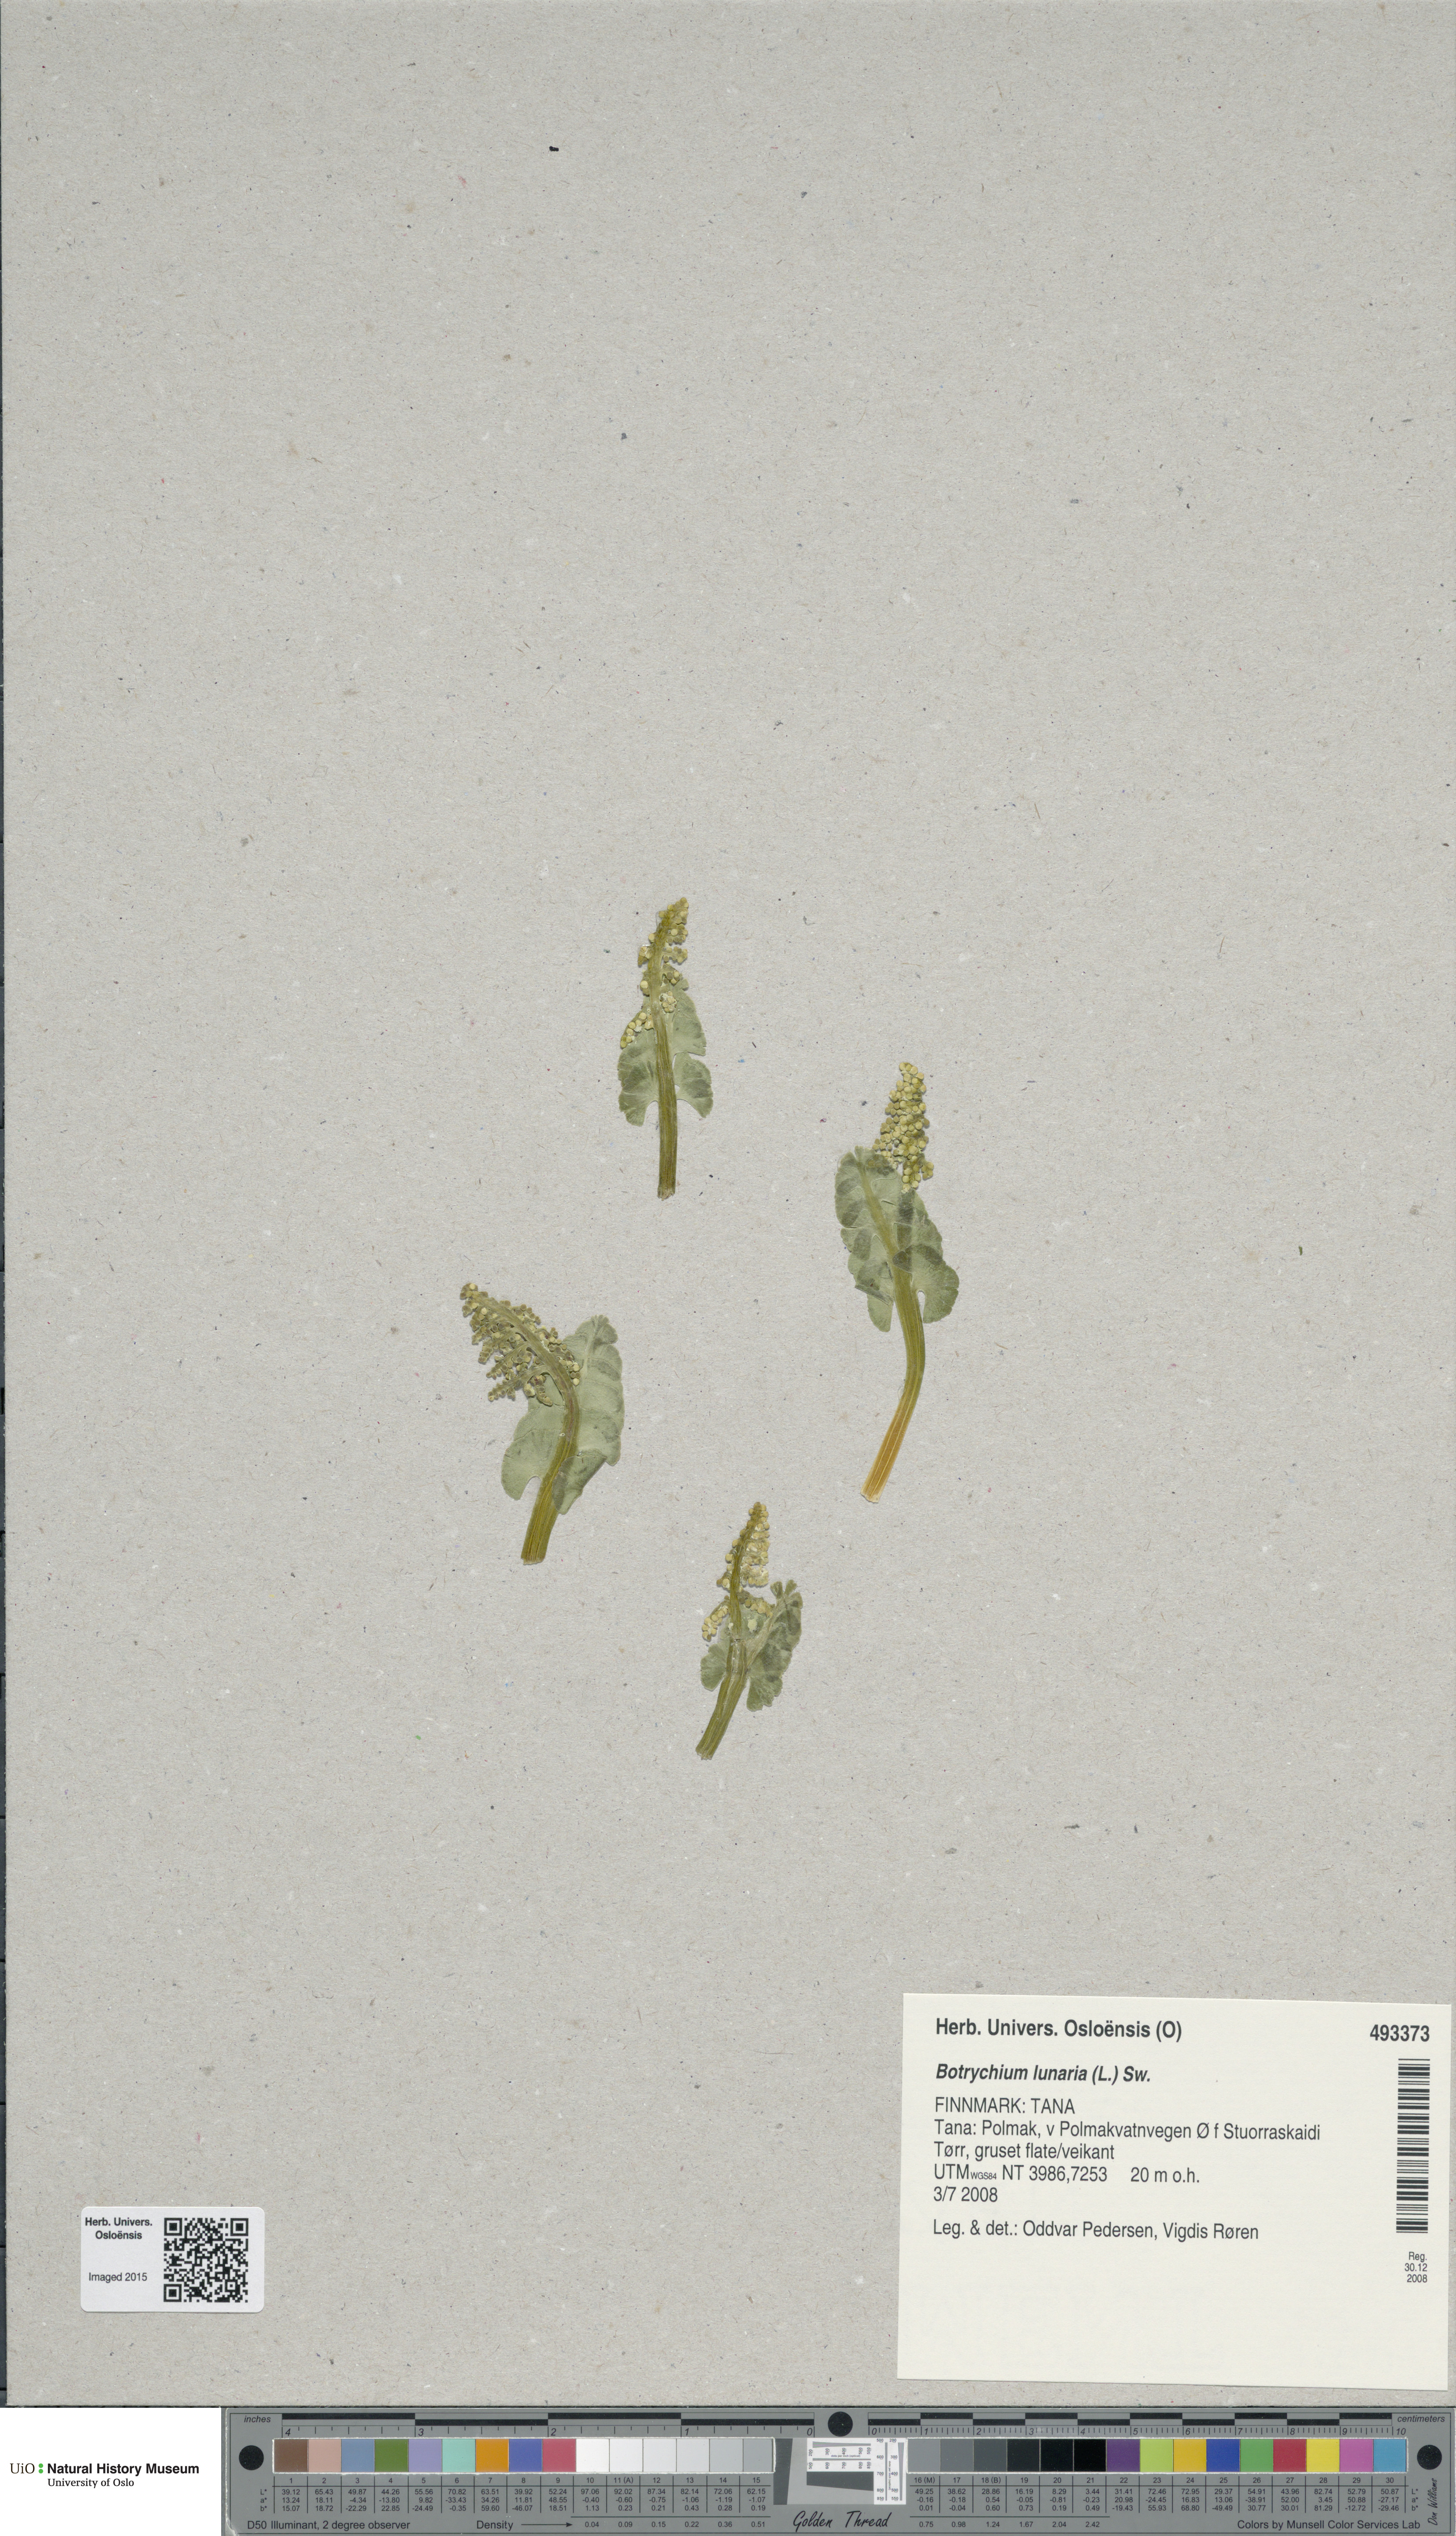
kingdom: Plantae
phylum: Tracheophyta
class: Polypodiopsida
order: Ophioglossales
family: Ophioglossaceae
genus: Botrychium
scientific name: Botrychium lunaria
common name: Moonwort
